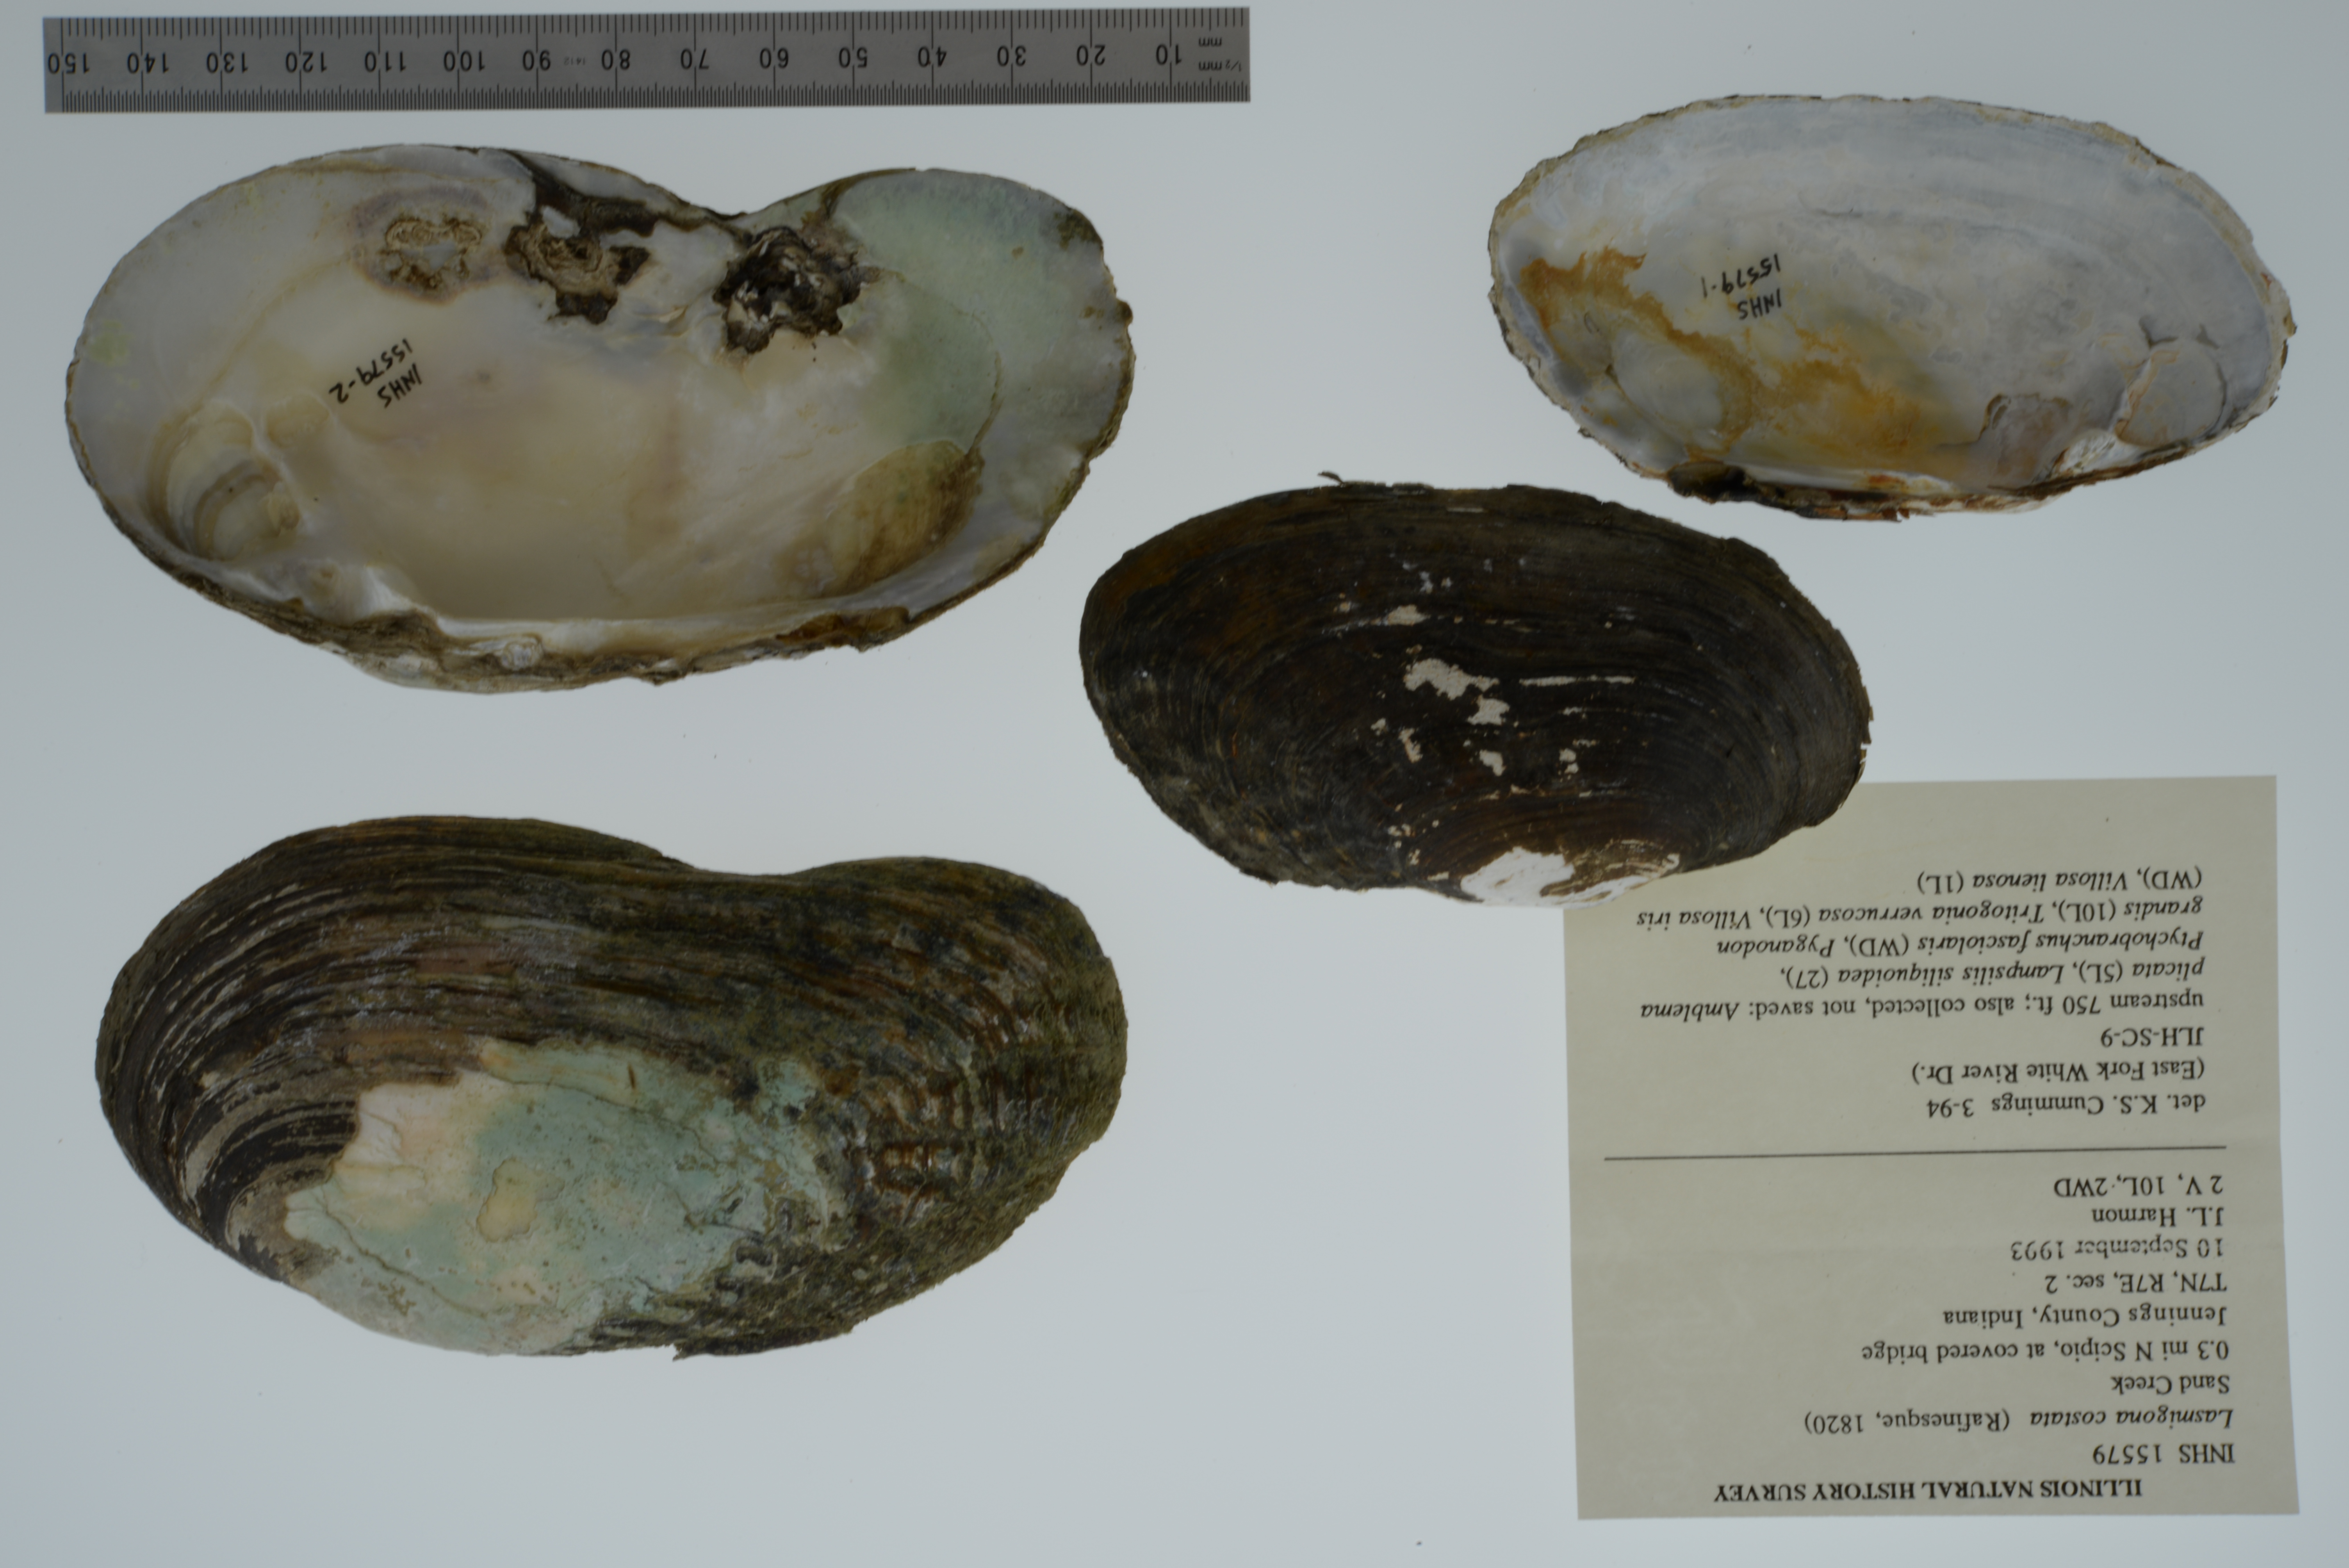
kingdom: Animalia
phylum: Mollusca
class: Bivalvia
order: Unionida
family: Unionidae
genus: Lasmigona
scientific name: Lasmigona costata
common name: Flutedshell
